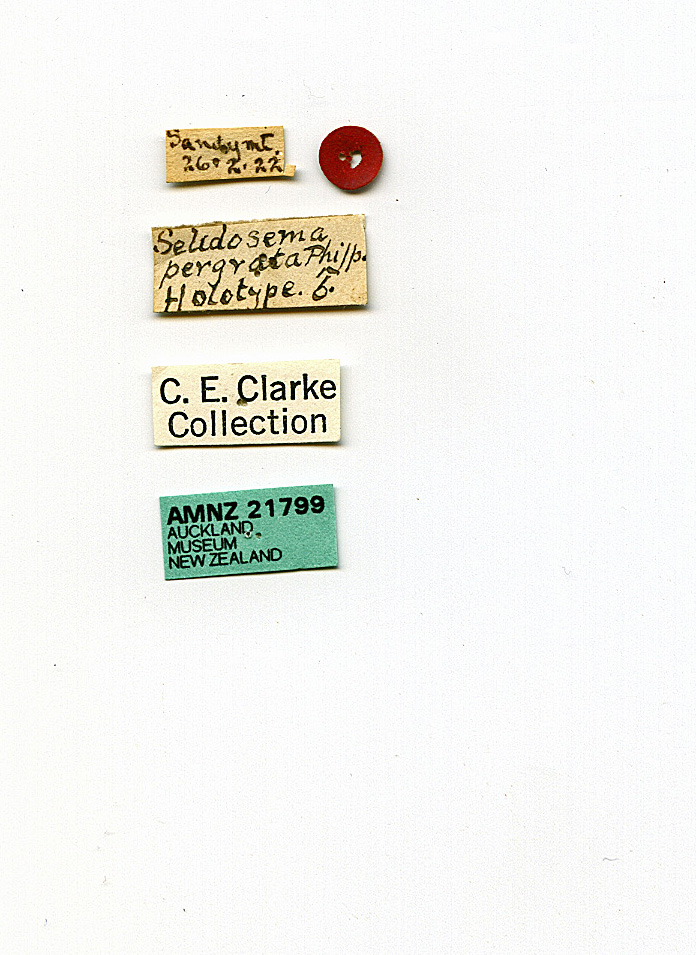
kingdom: Animalia
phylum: Arthropoda
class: Insecta
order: Lepidoptera
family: Geometridae
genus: Pseudocoremia
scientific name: Pseudocoremia insignita
